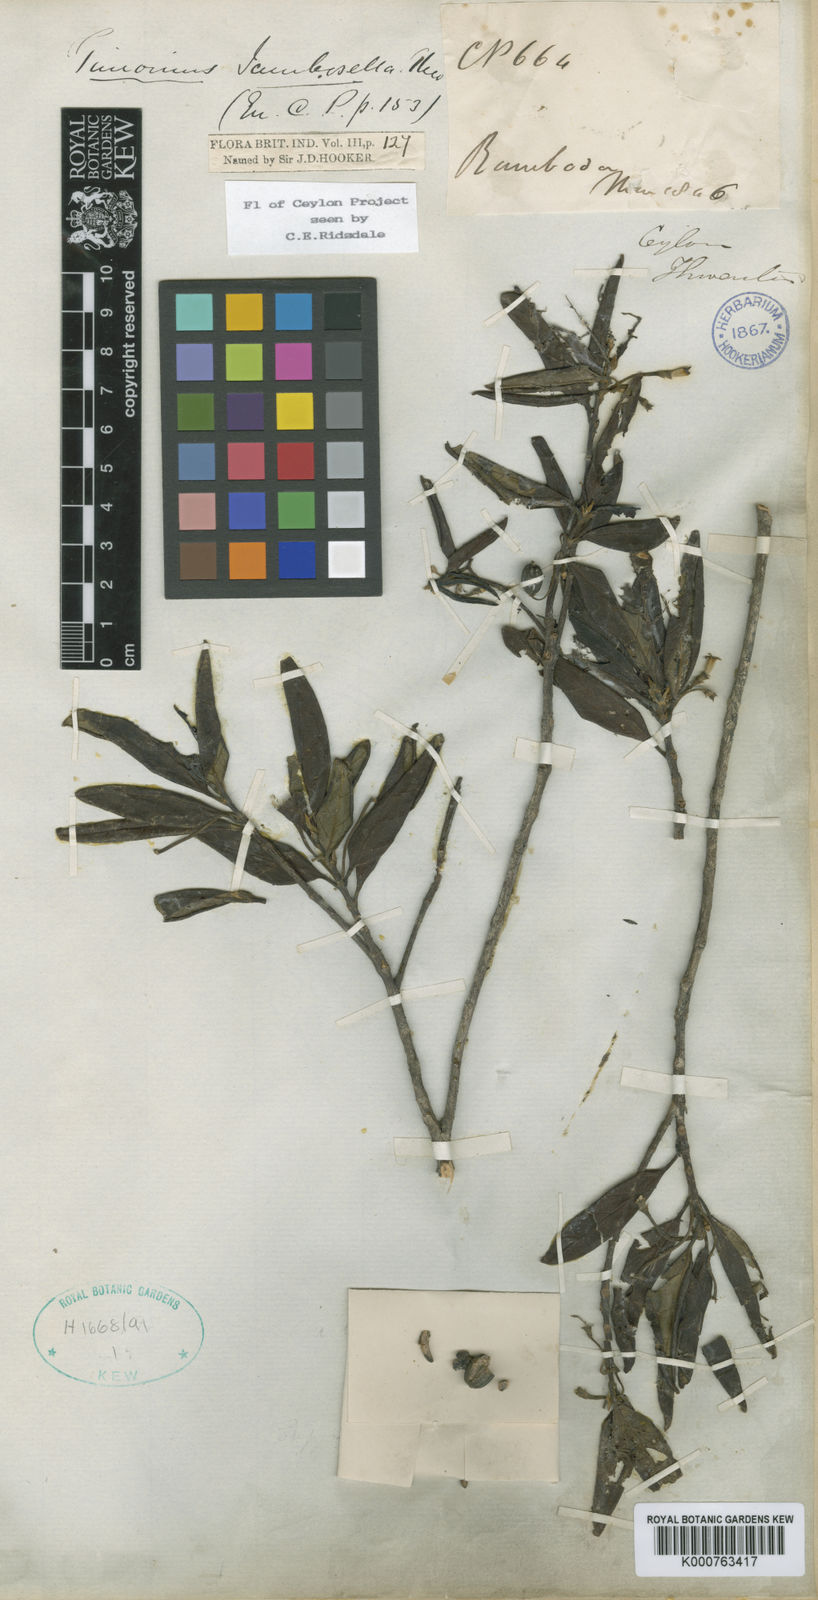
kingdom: Plantae
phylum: Tracheophyta
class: Magnoliopsida
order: Gentianales
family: Rubiaceae
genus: Timonius
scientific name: Timonius flavescens
